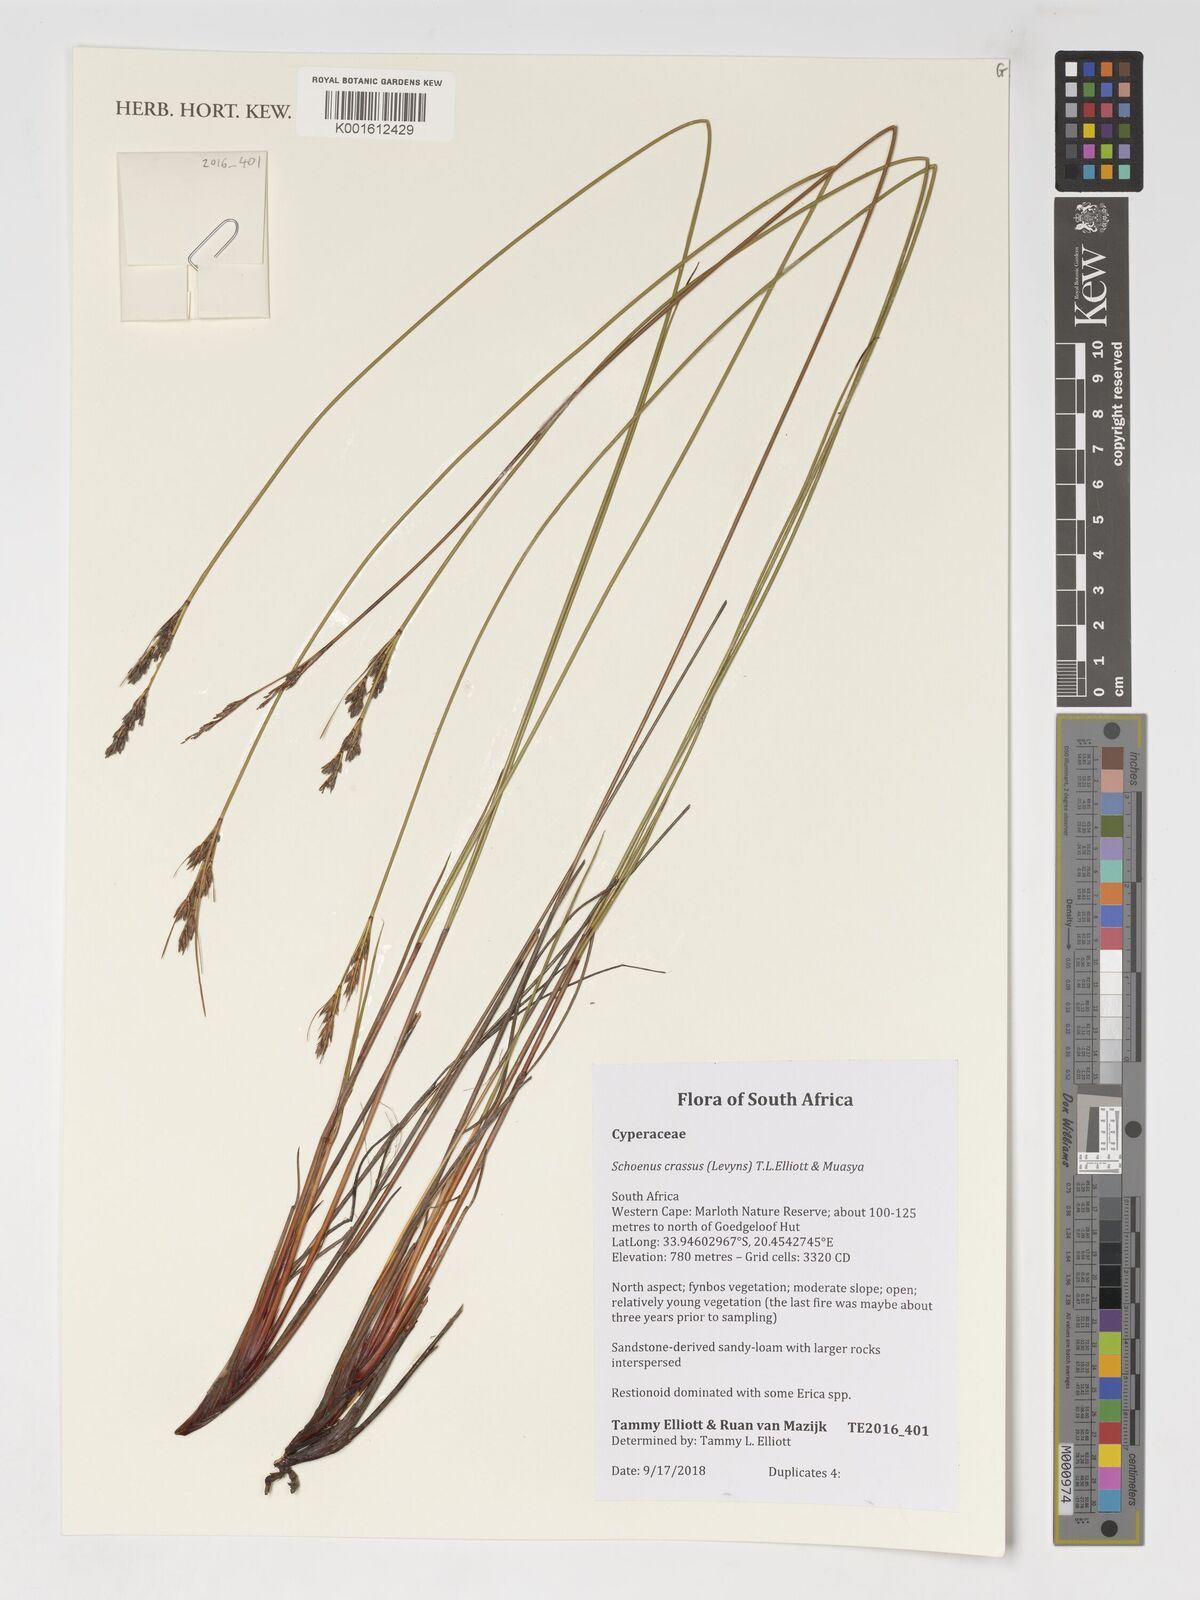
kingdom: Plantae
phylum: Tracheophyta
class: Liliopsida
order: Poales
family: Cyperaceae
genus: Schoenus
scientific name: Schoenus crassus
